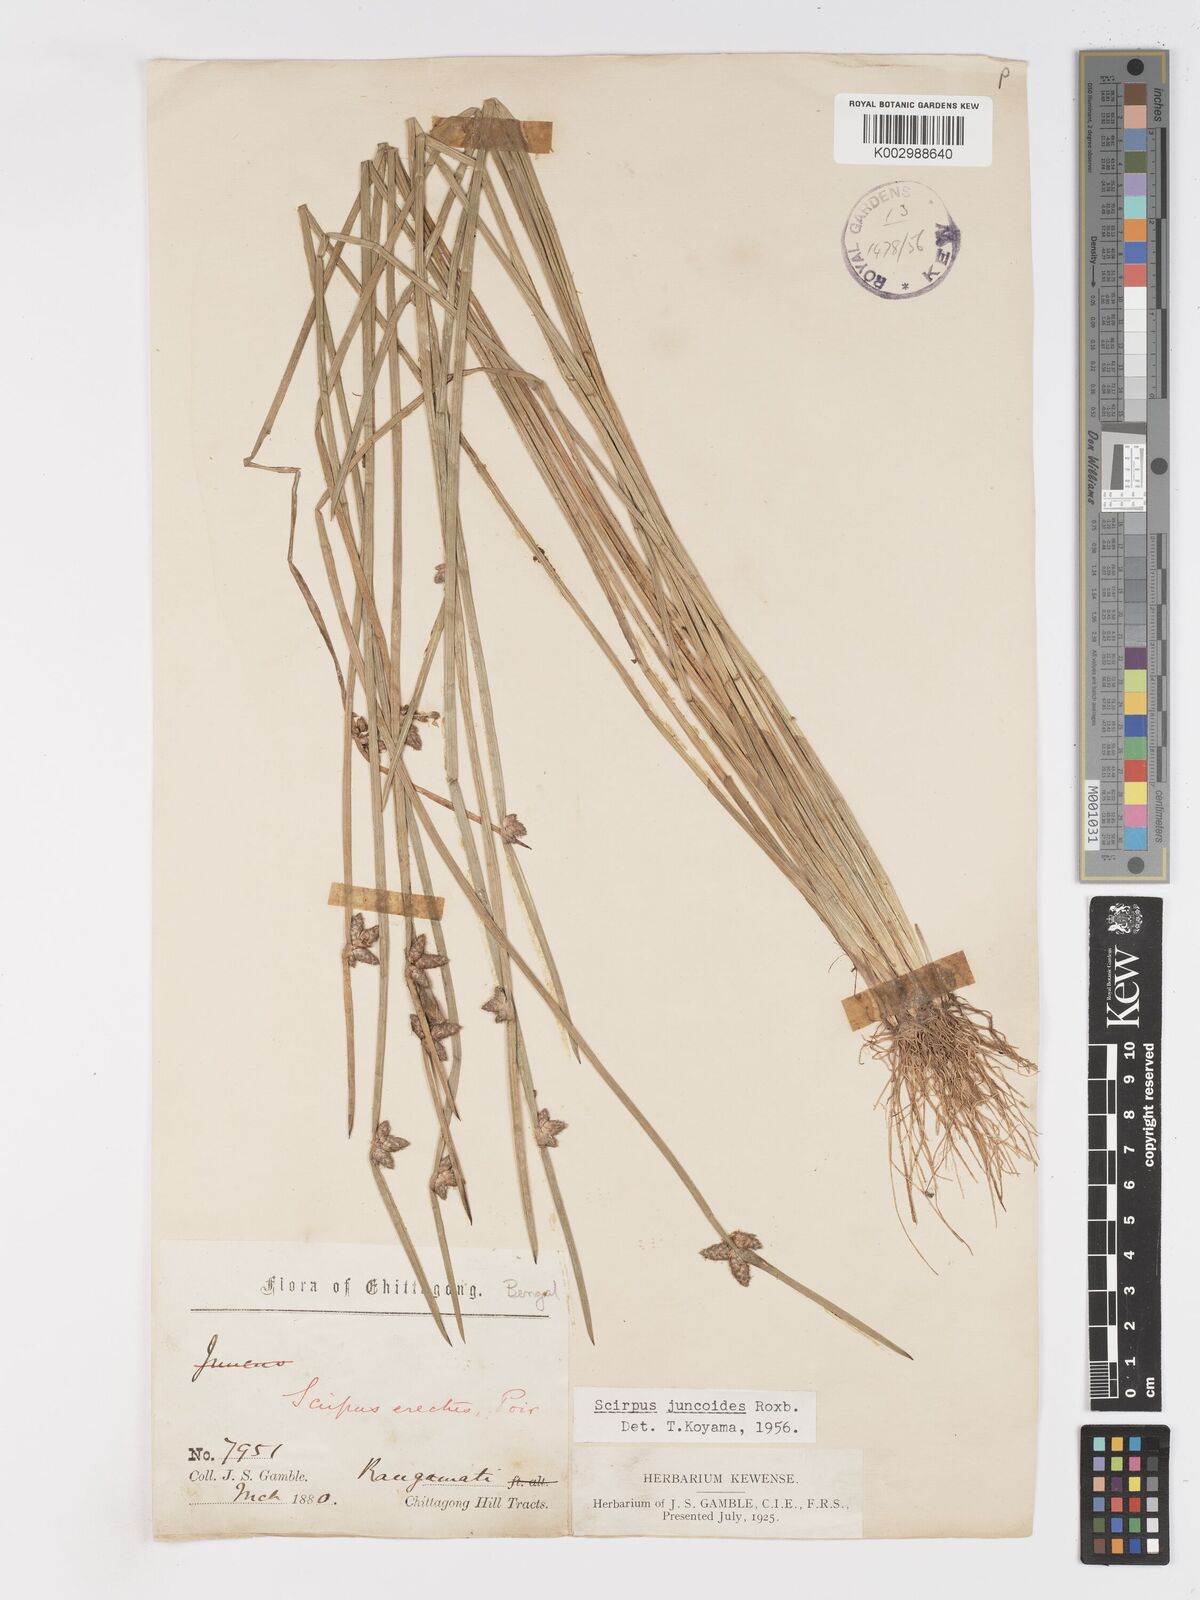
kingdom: Plantae
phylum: Tracheophyta
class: Liliopsida
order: Poales
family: Cyperaceae
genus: Schoenoplectiella
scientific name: Schoenoplectiella juncoides
